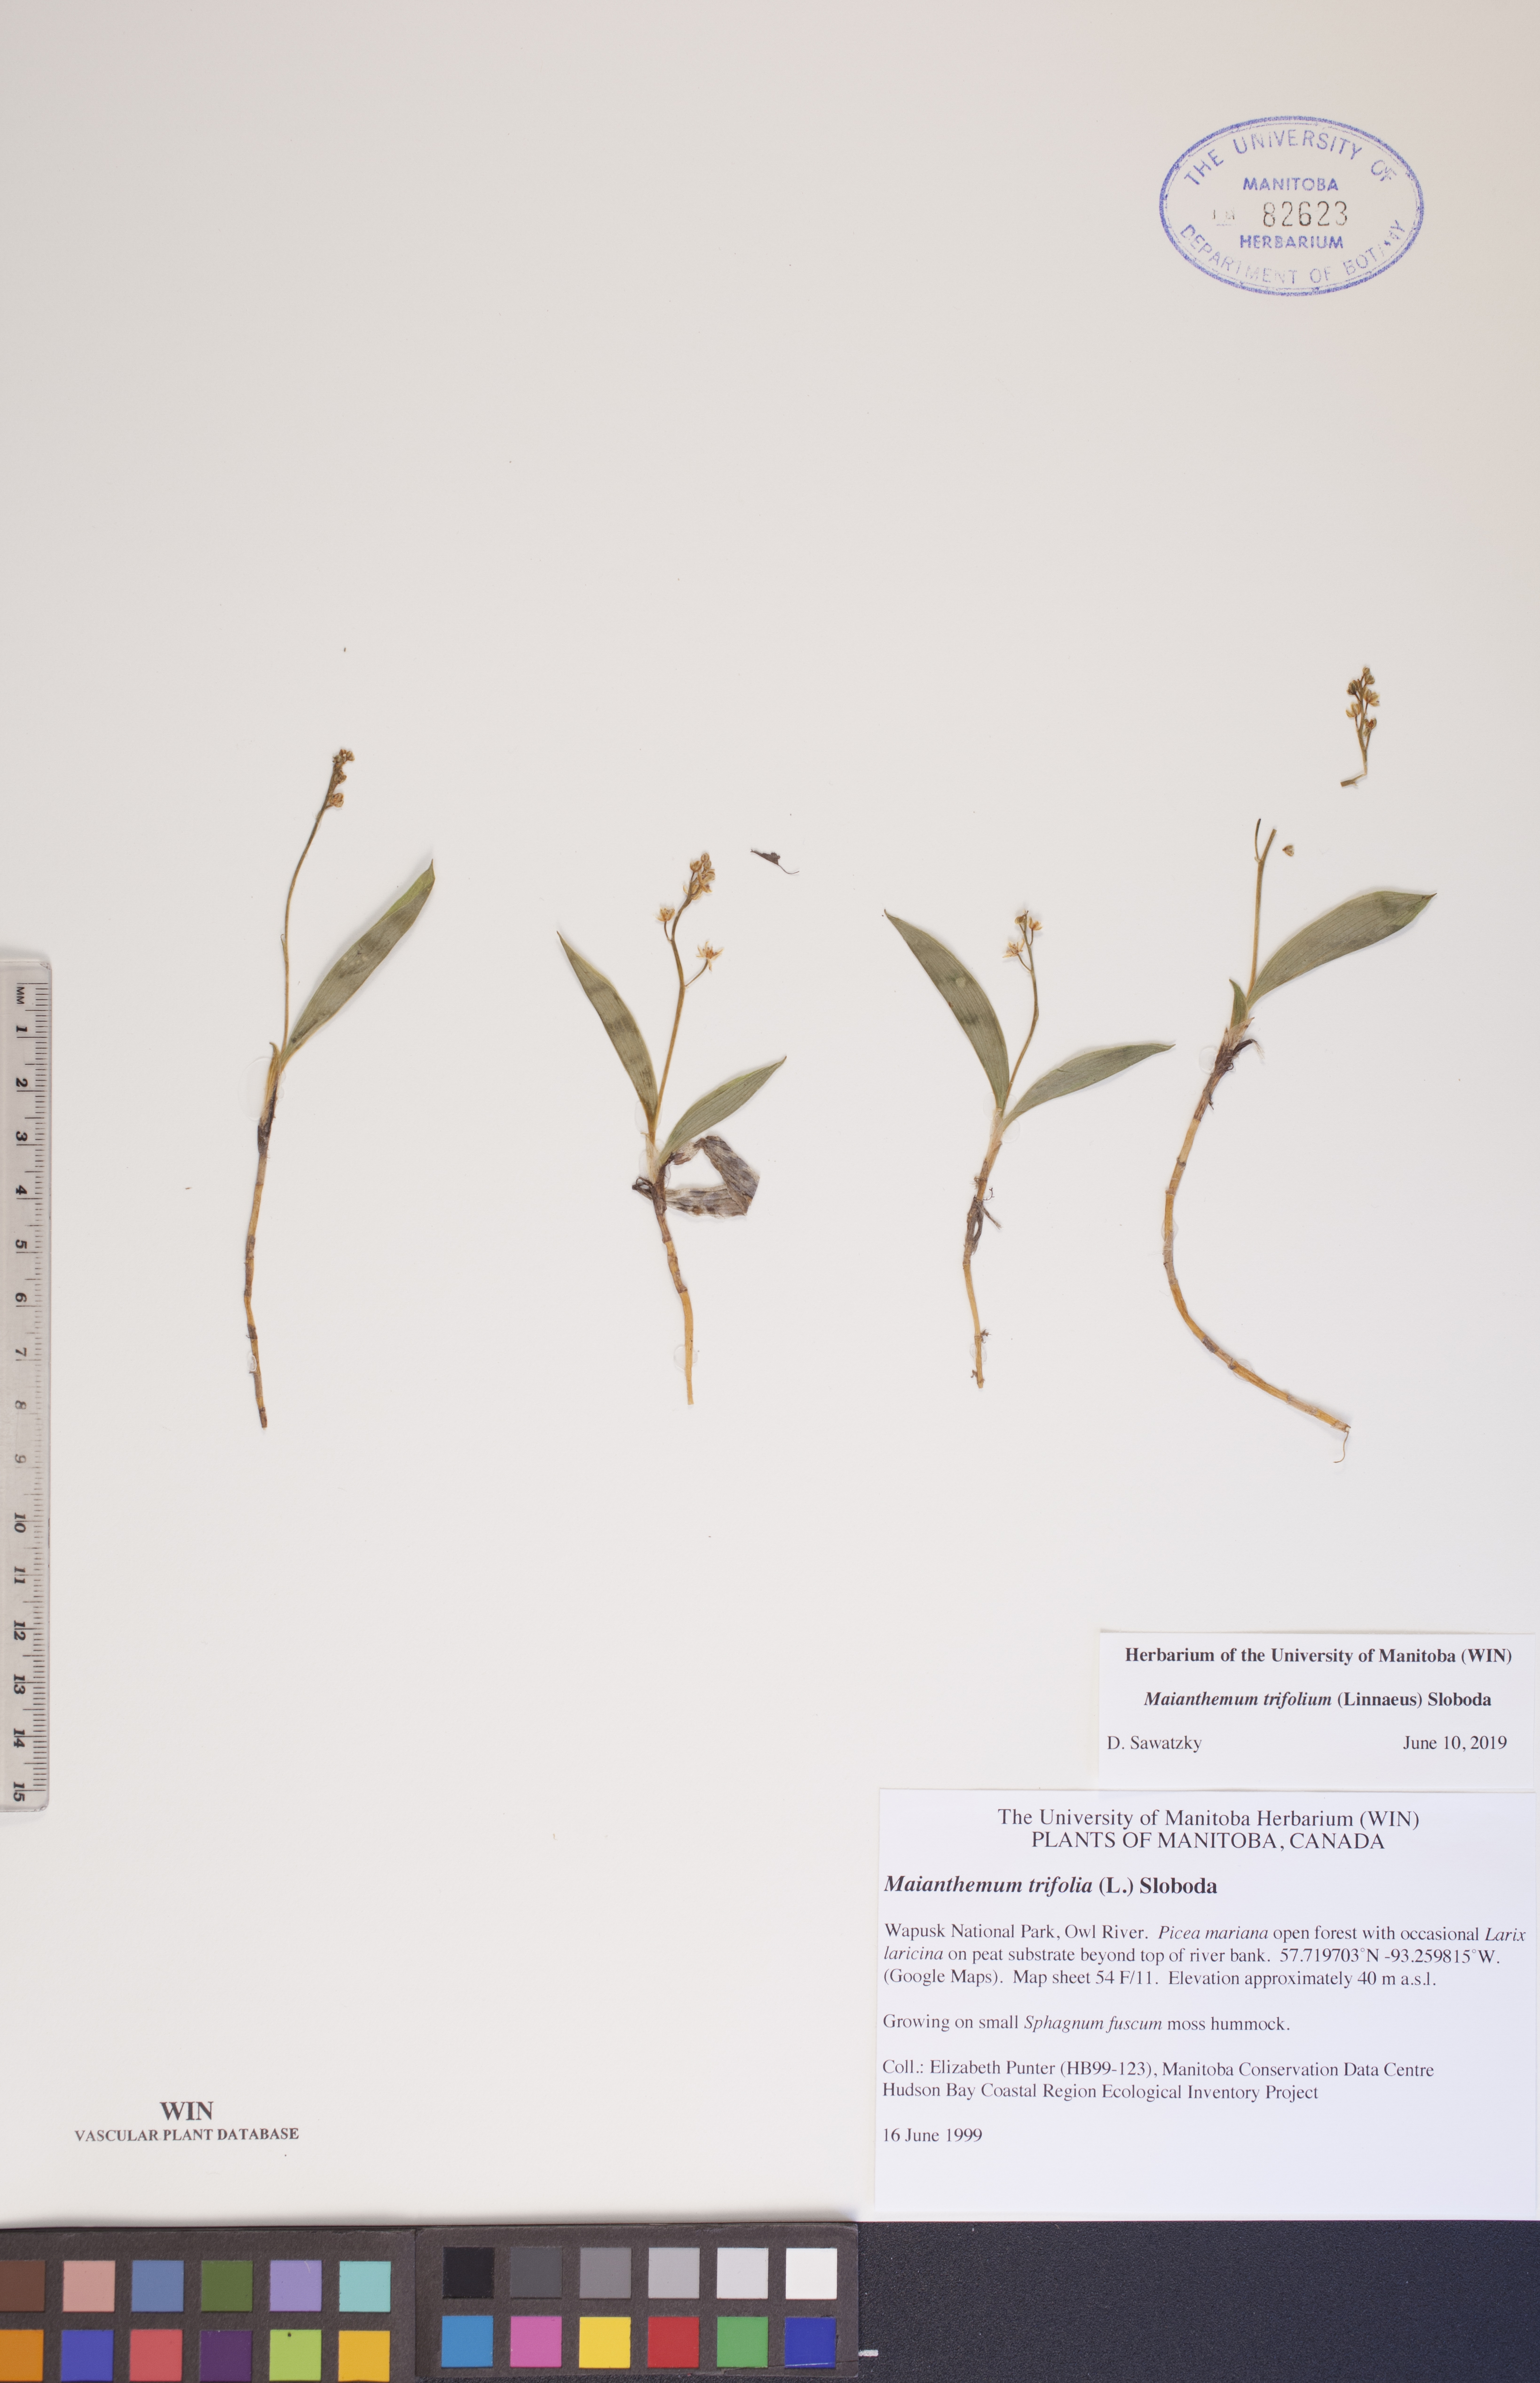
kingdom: Plantae
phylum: Tracheophyta
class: Liliopsida
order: Asparagales
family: Asparagaceae
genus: Maianthemum
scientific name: Maianthemum trifolium
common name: Swamp false solomon's seal
